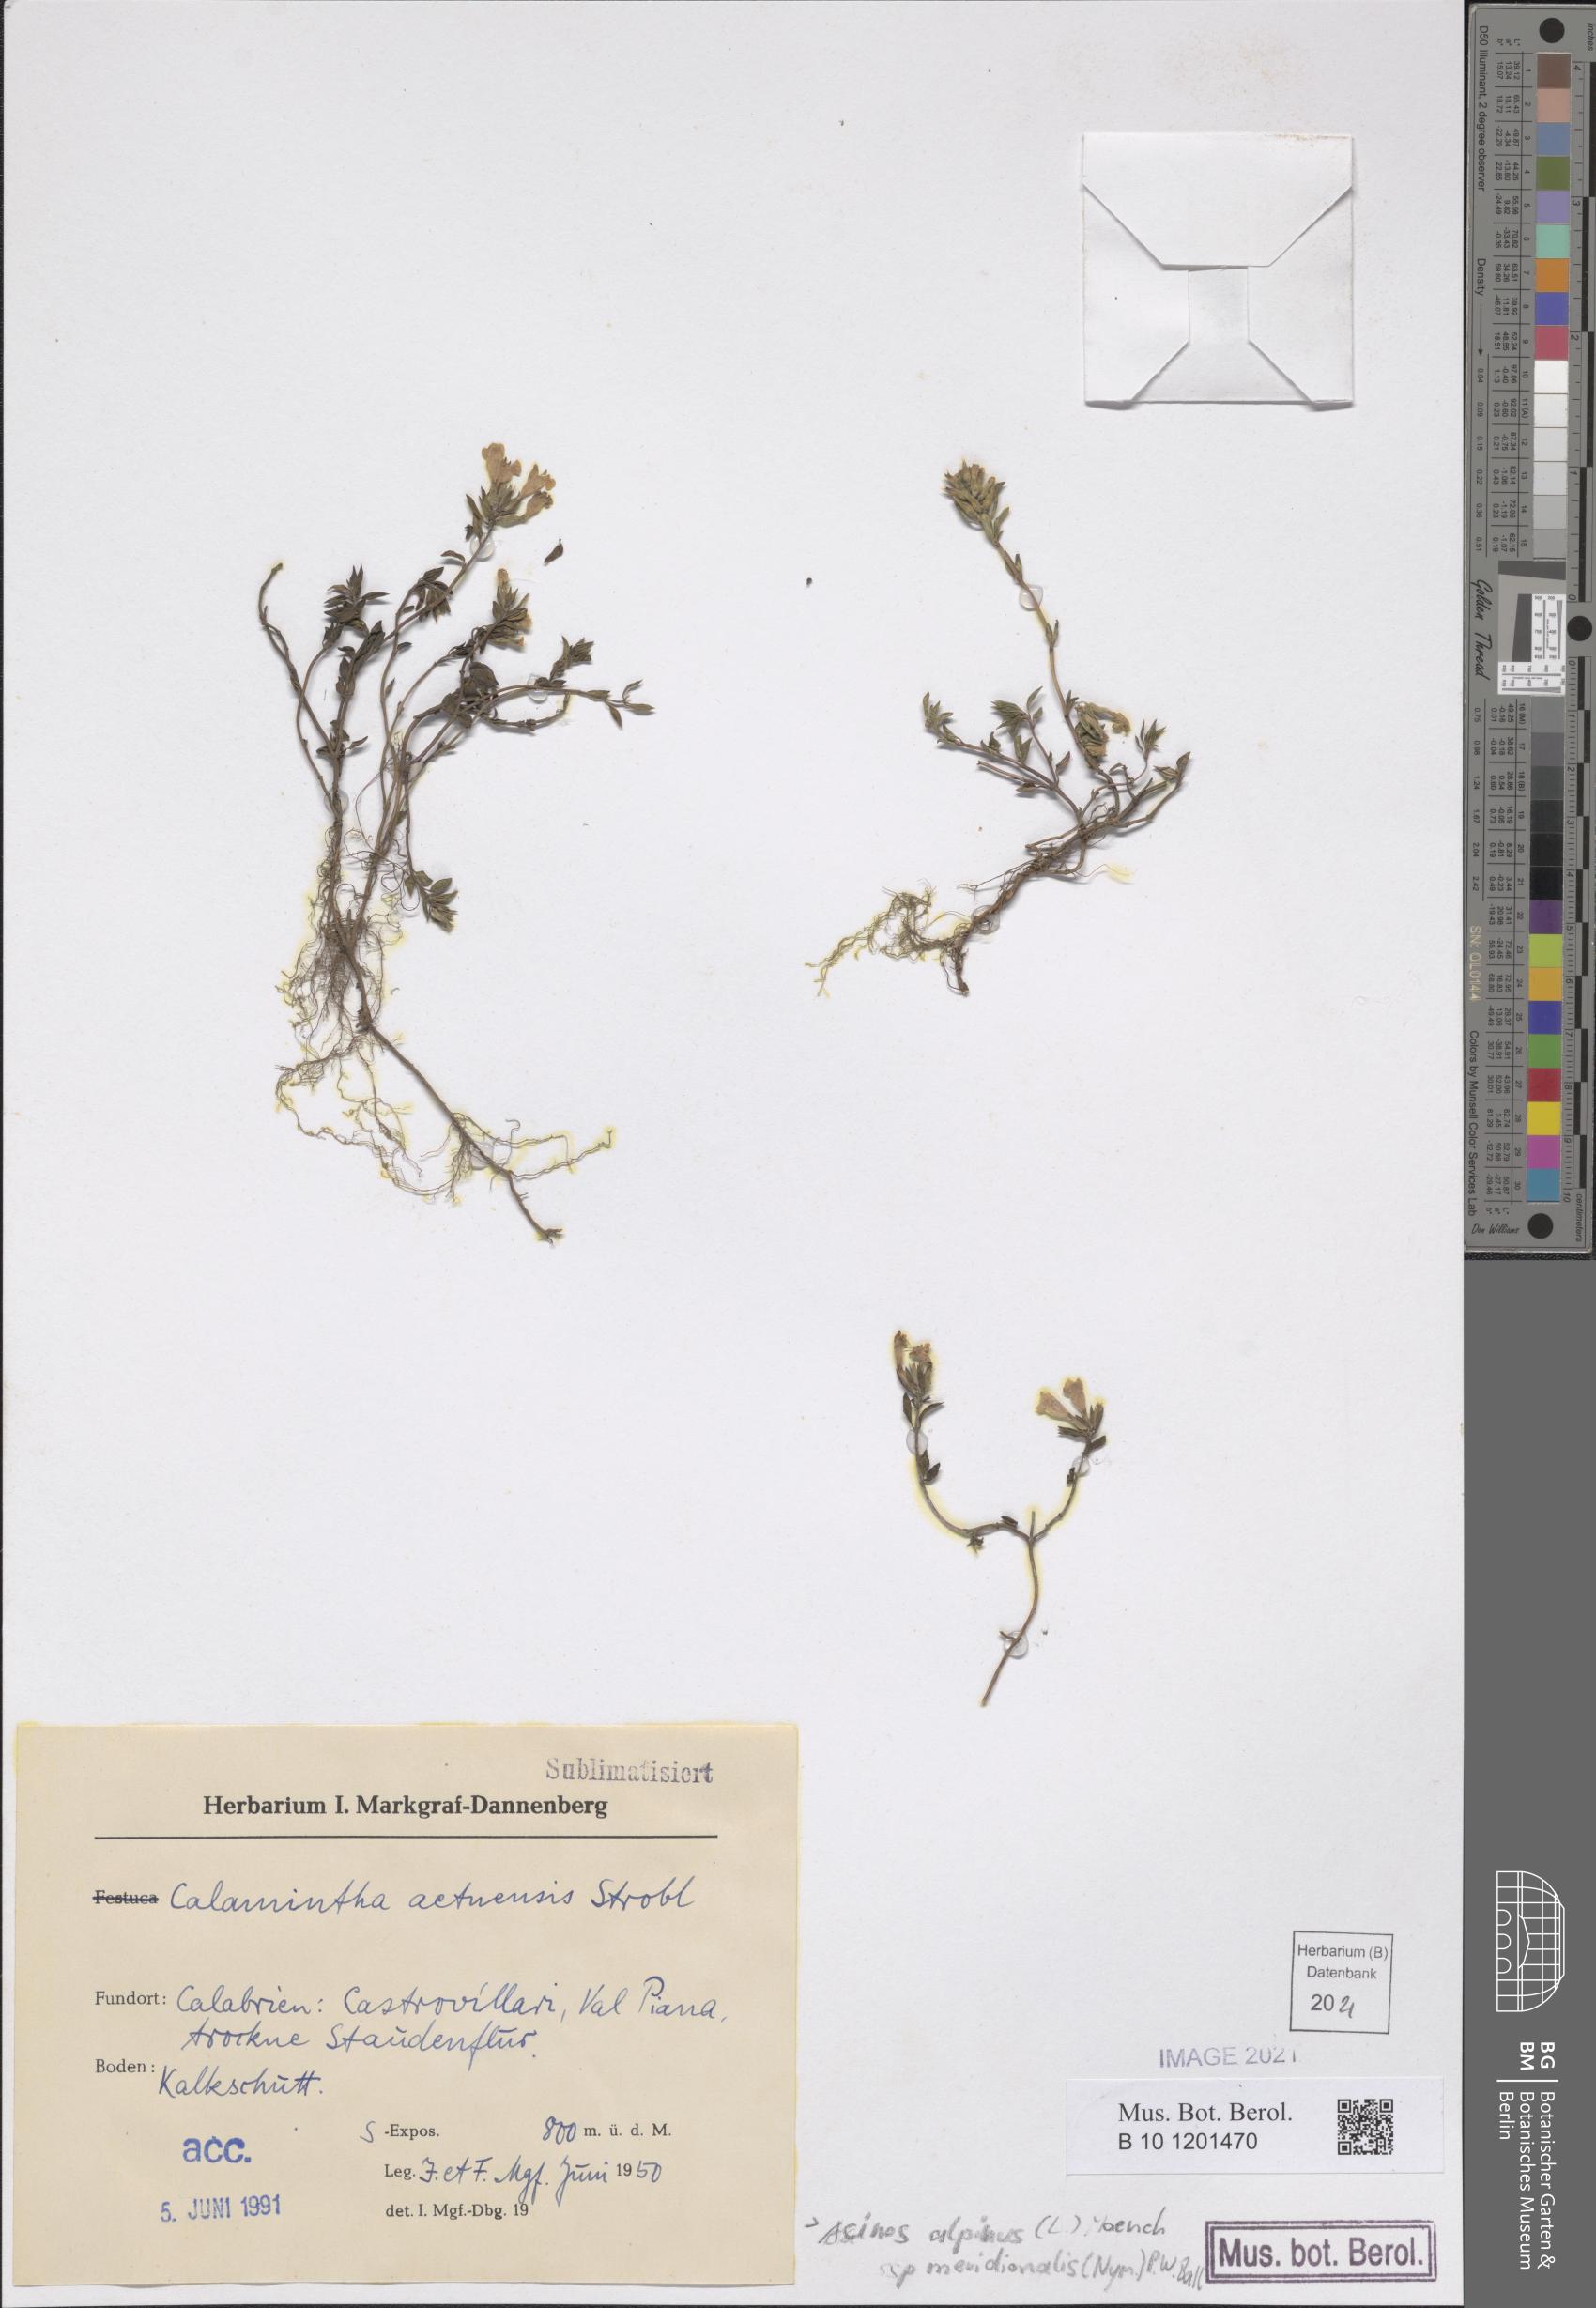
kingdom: Plantae
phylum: Tracheophyta
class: Magnoliopsida
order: Lamiales
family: Lamiaceae
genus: Clinopodium
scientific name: Clinopodium alpinum
